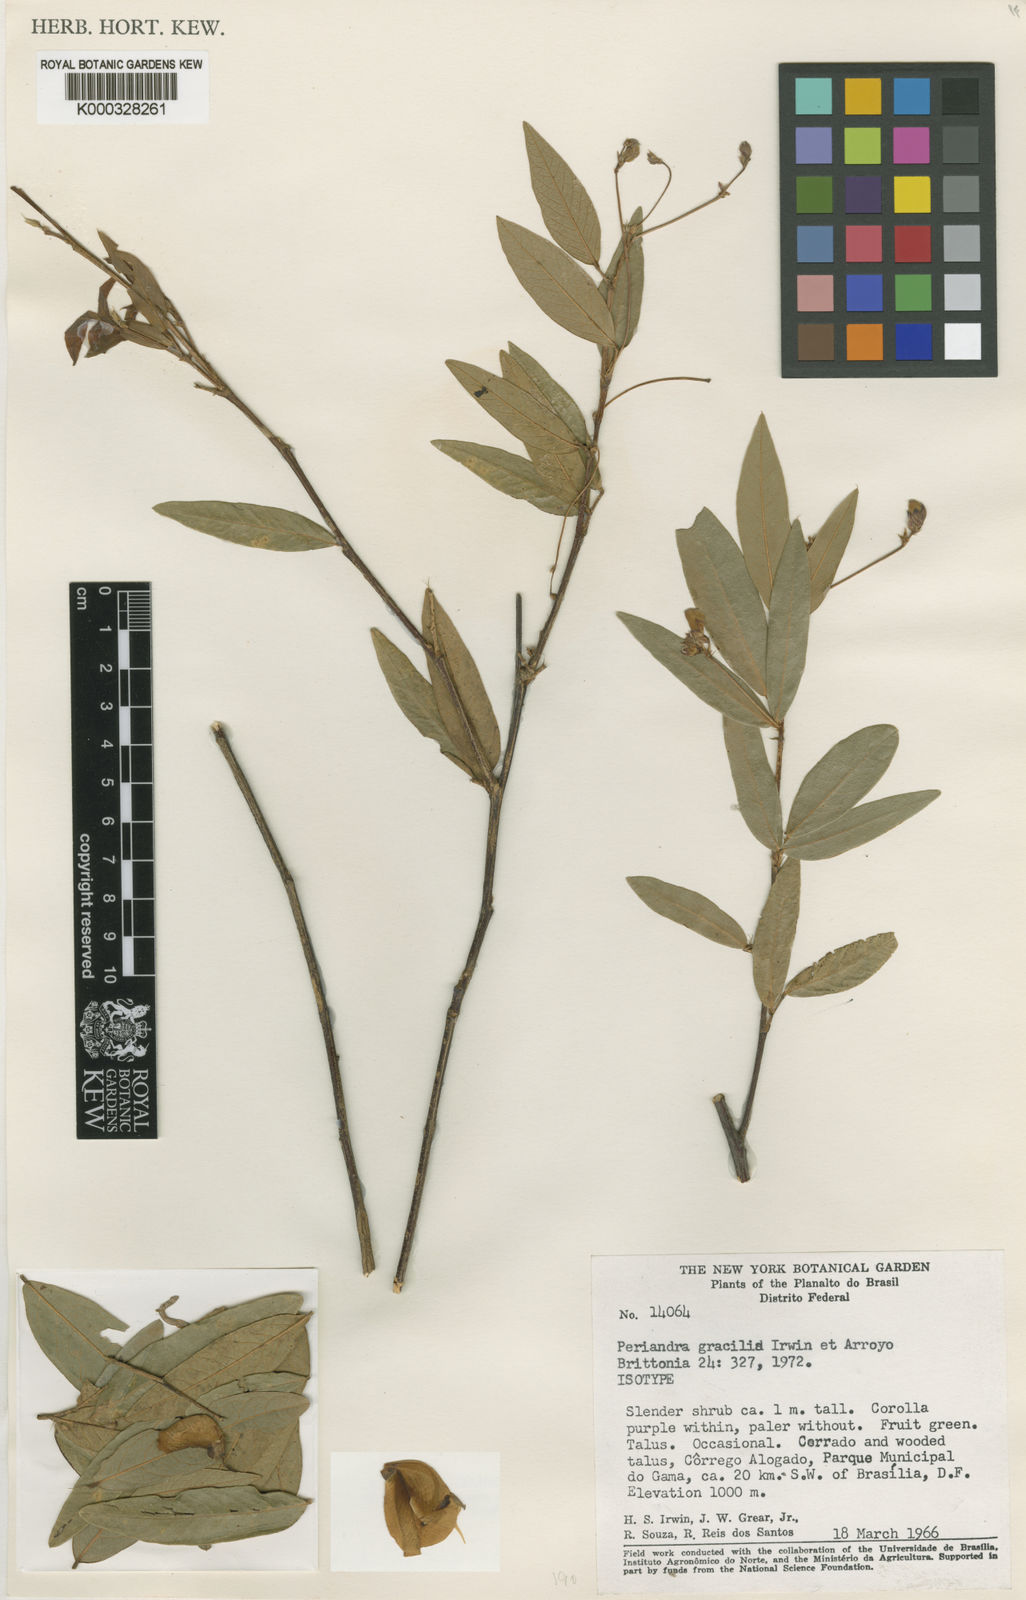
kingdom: Plantae
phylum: Tracheophyta
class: Magnoliopsida
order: Fabales
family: Fabaceae
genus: Periandra
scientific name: Periandra gracilis
